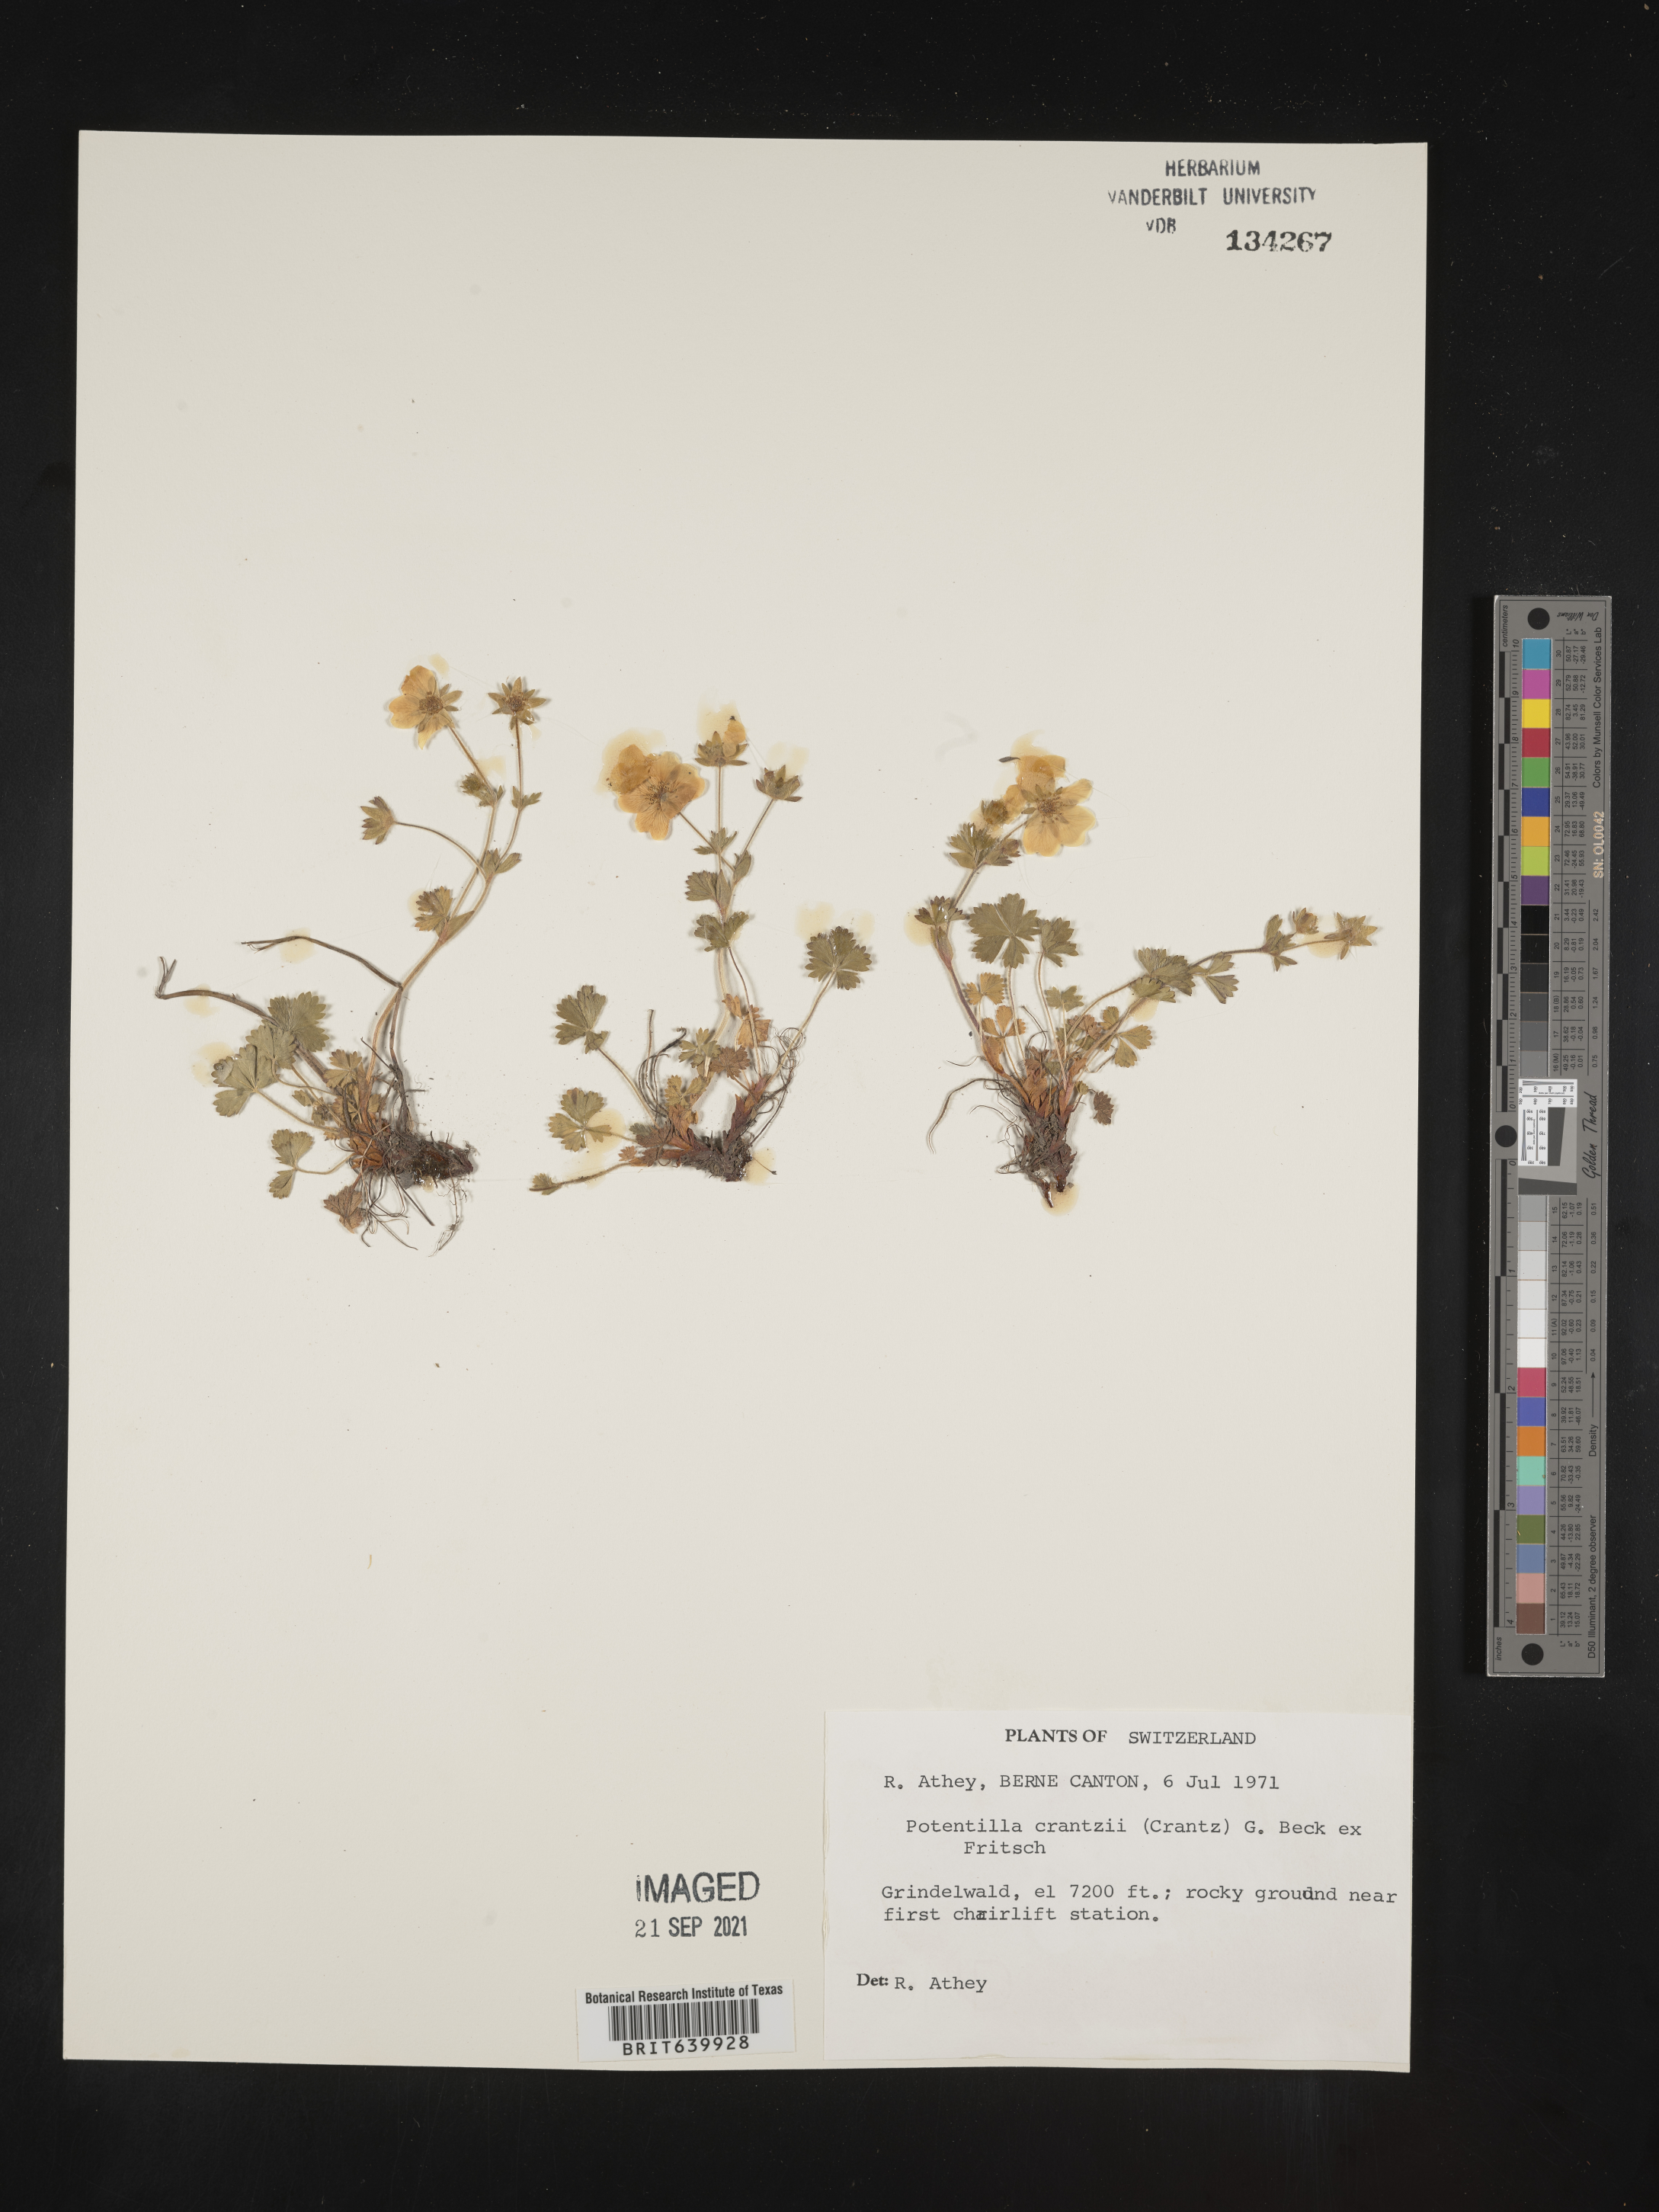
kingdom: Plantae
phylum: Tracheophyta
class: Magnoliopsida
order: Rosales
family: Rosaceae
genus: Potentilla
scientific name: Potentilla
